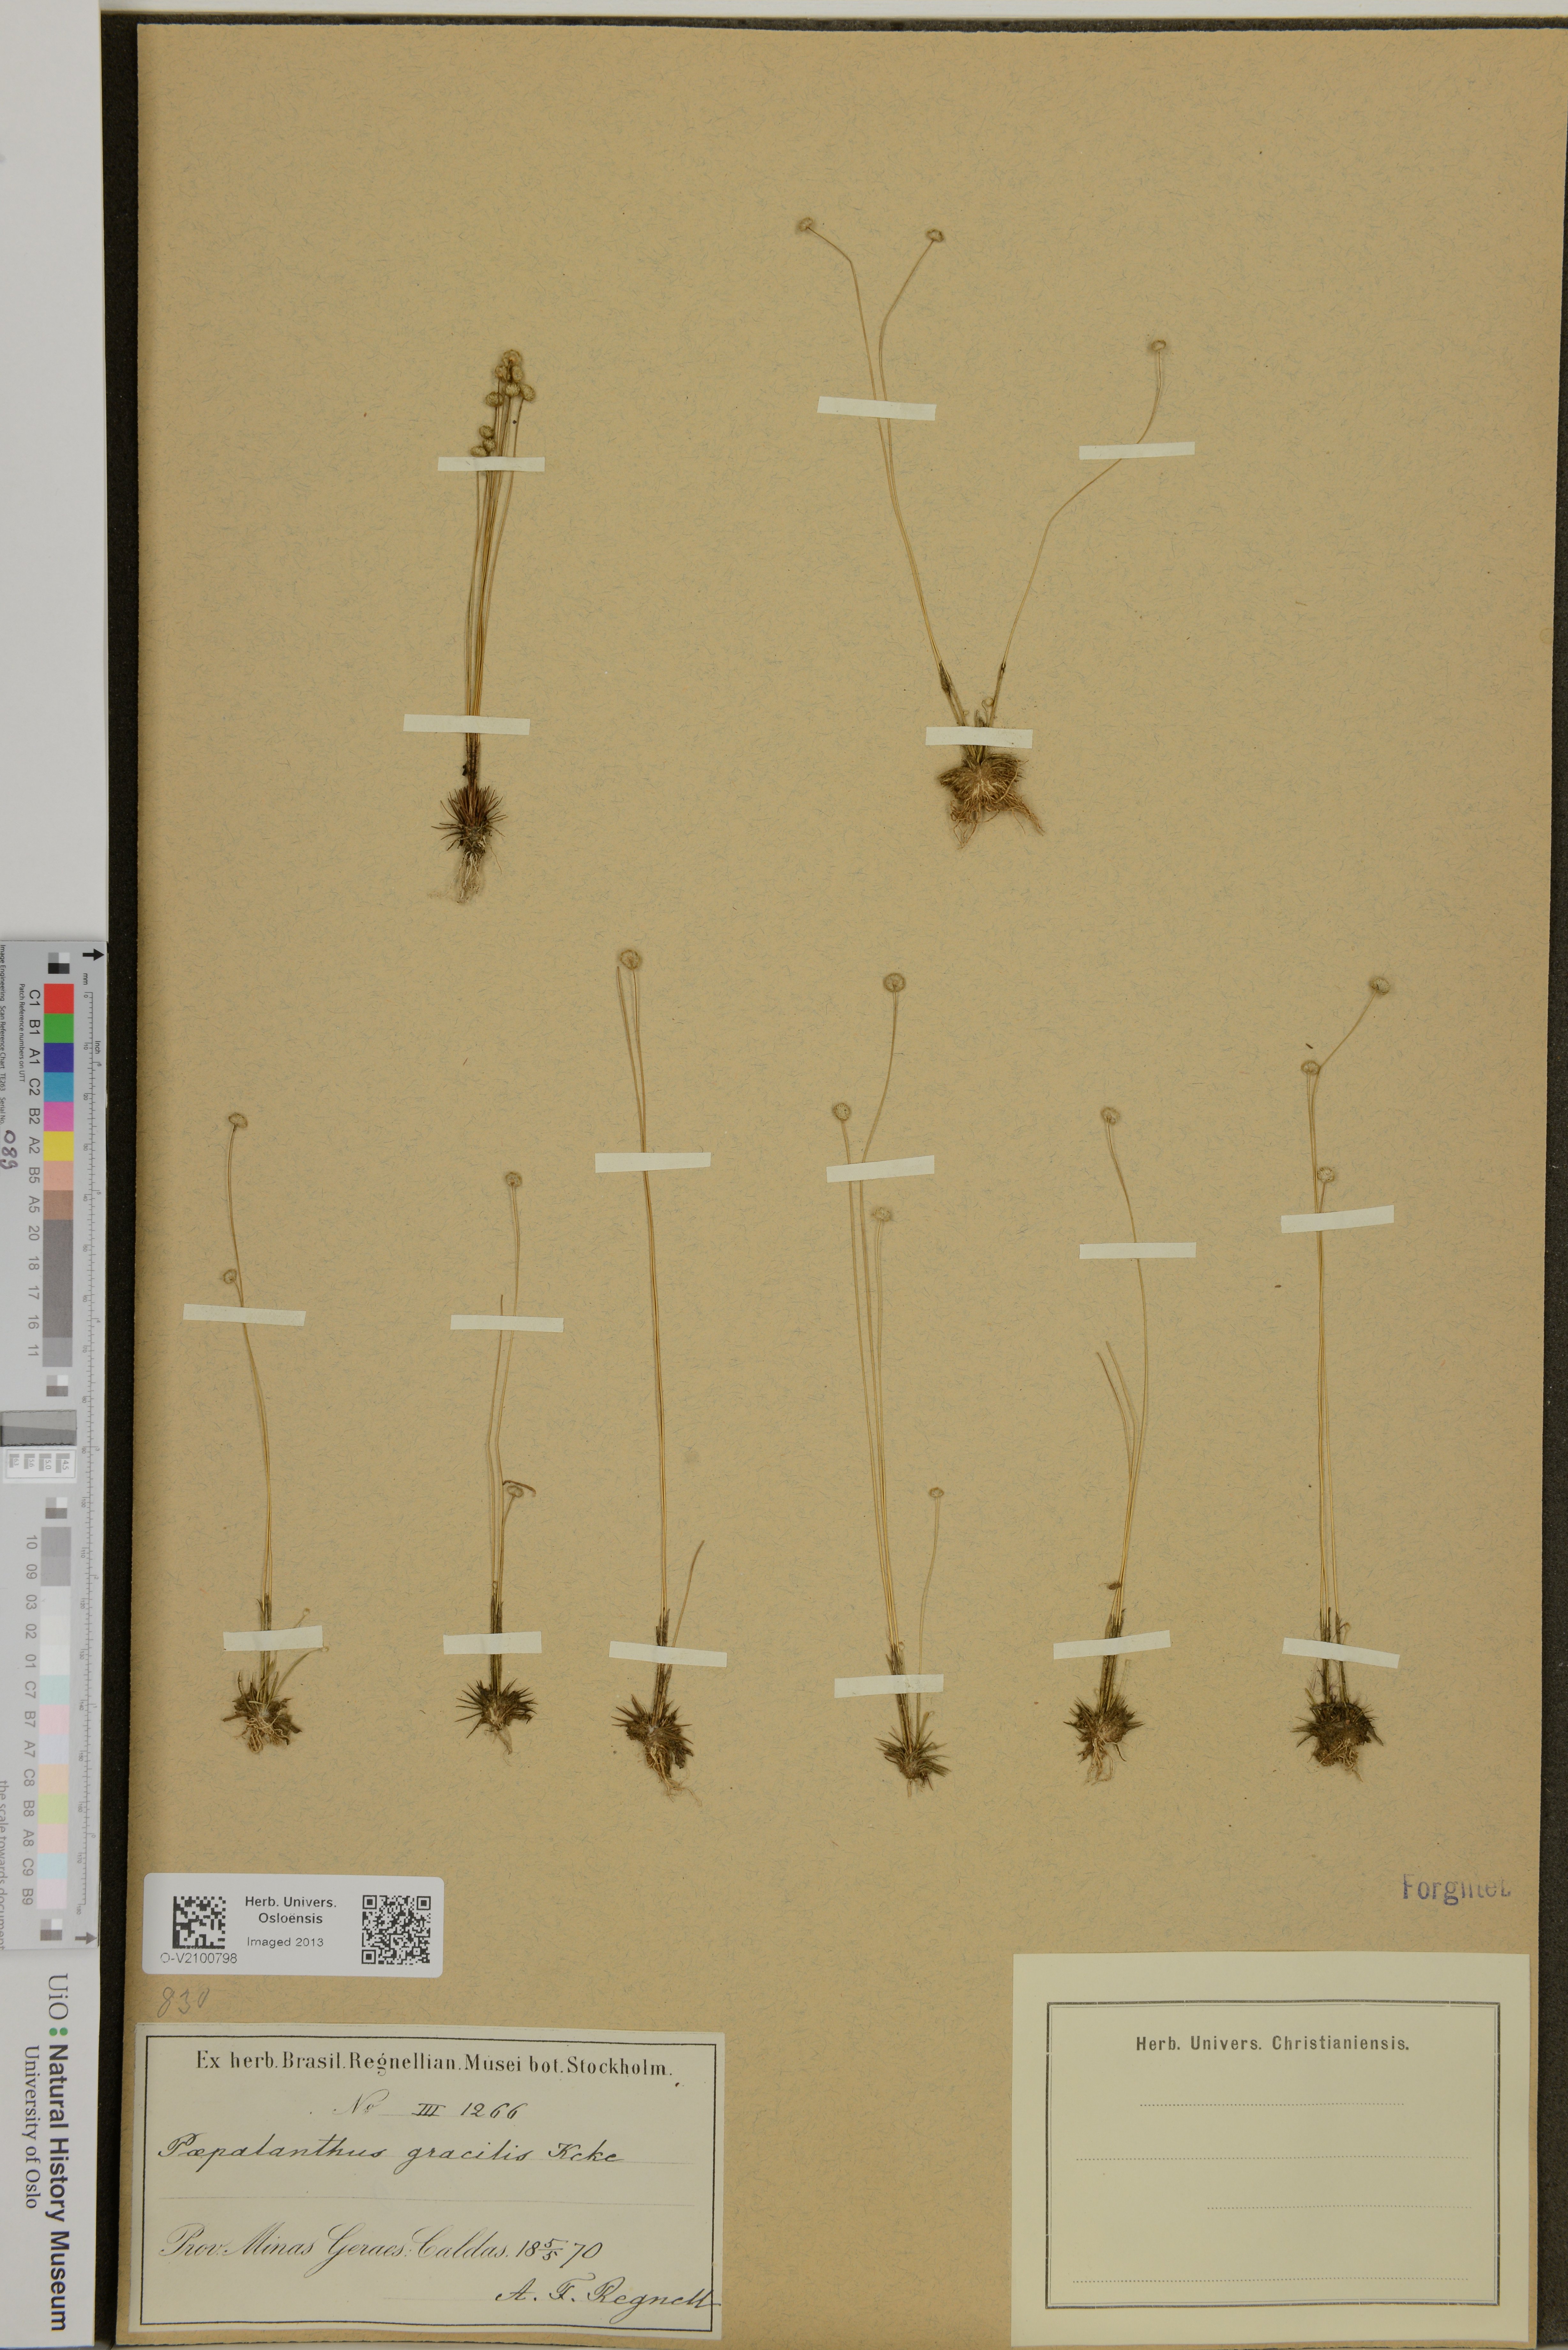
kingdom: Plantae
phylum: Tracheophyta
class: Liliopsida
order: Poales
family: Eriocaulaceae
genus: Syngonanthus
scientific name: Syngonanthus gracilis
